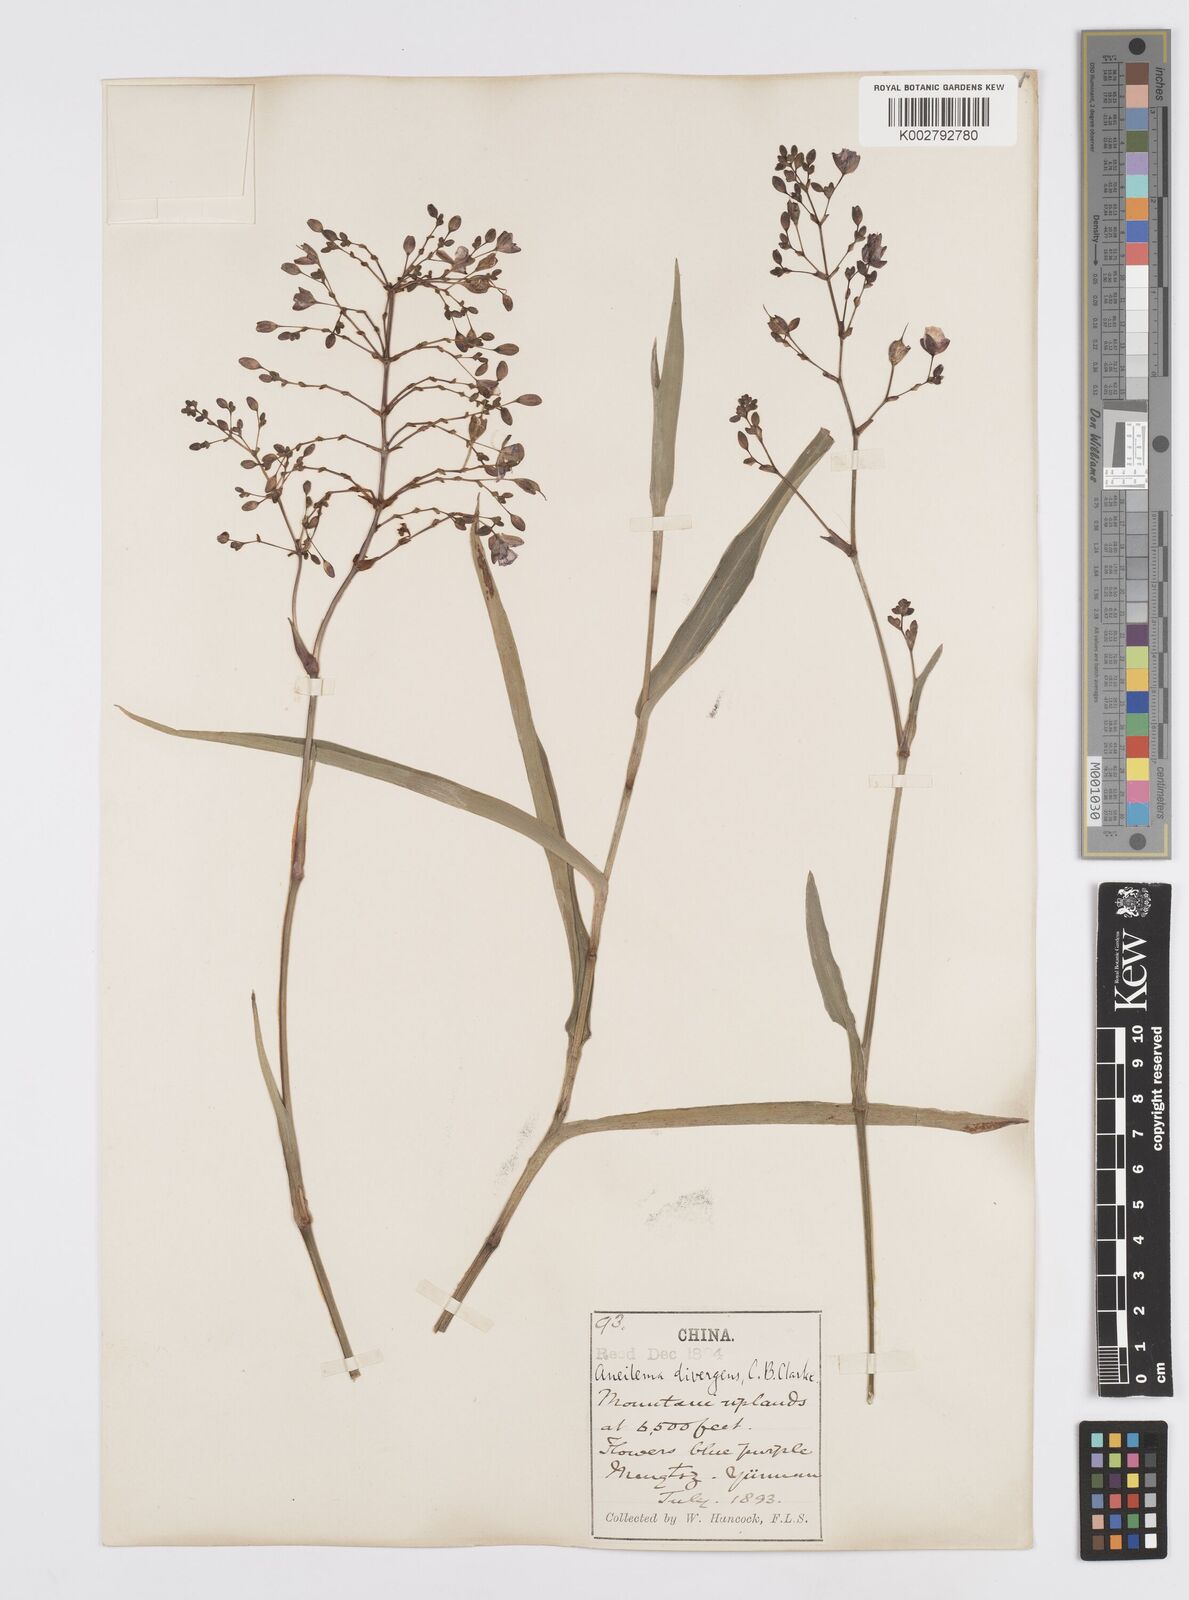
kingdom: Plantae
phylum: Tracheophyta
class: Liliopsida
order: Commelinales
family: Commelinaceae
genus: Murdannia
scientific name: Murdannia divergens
